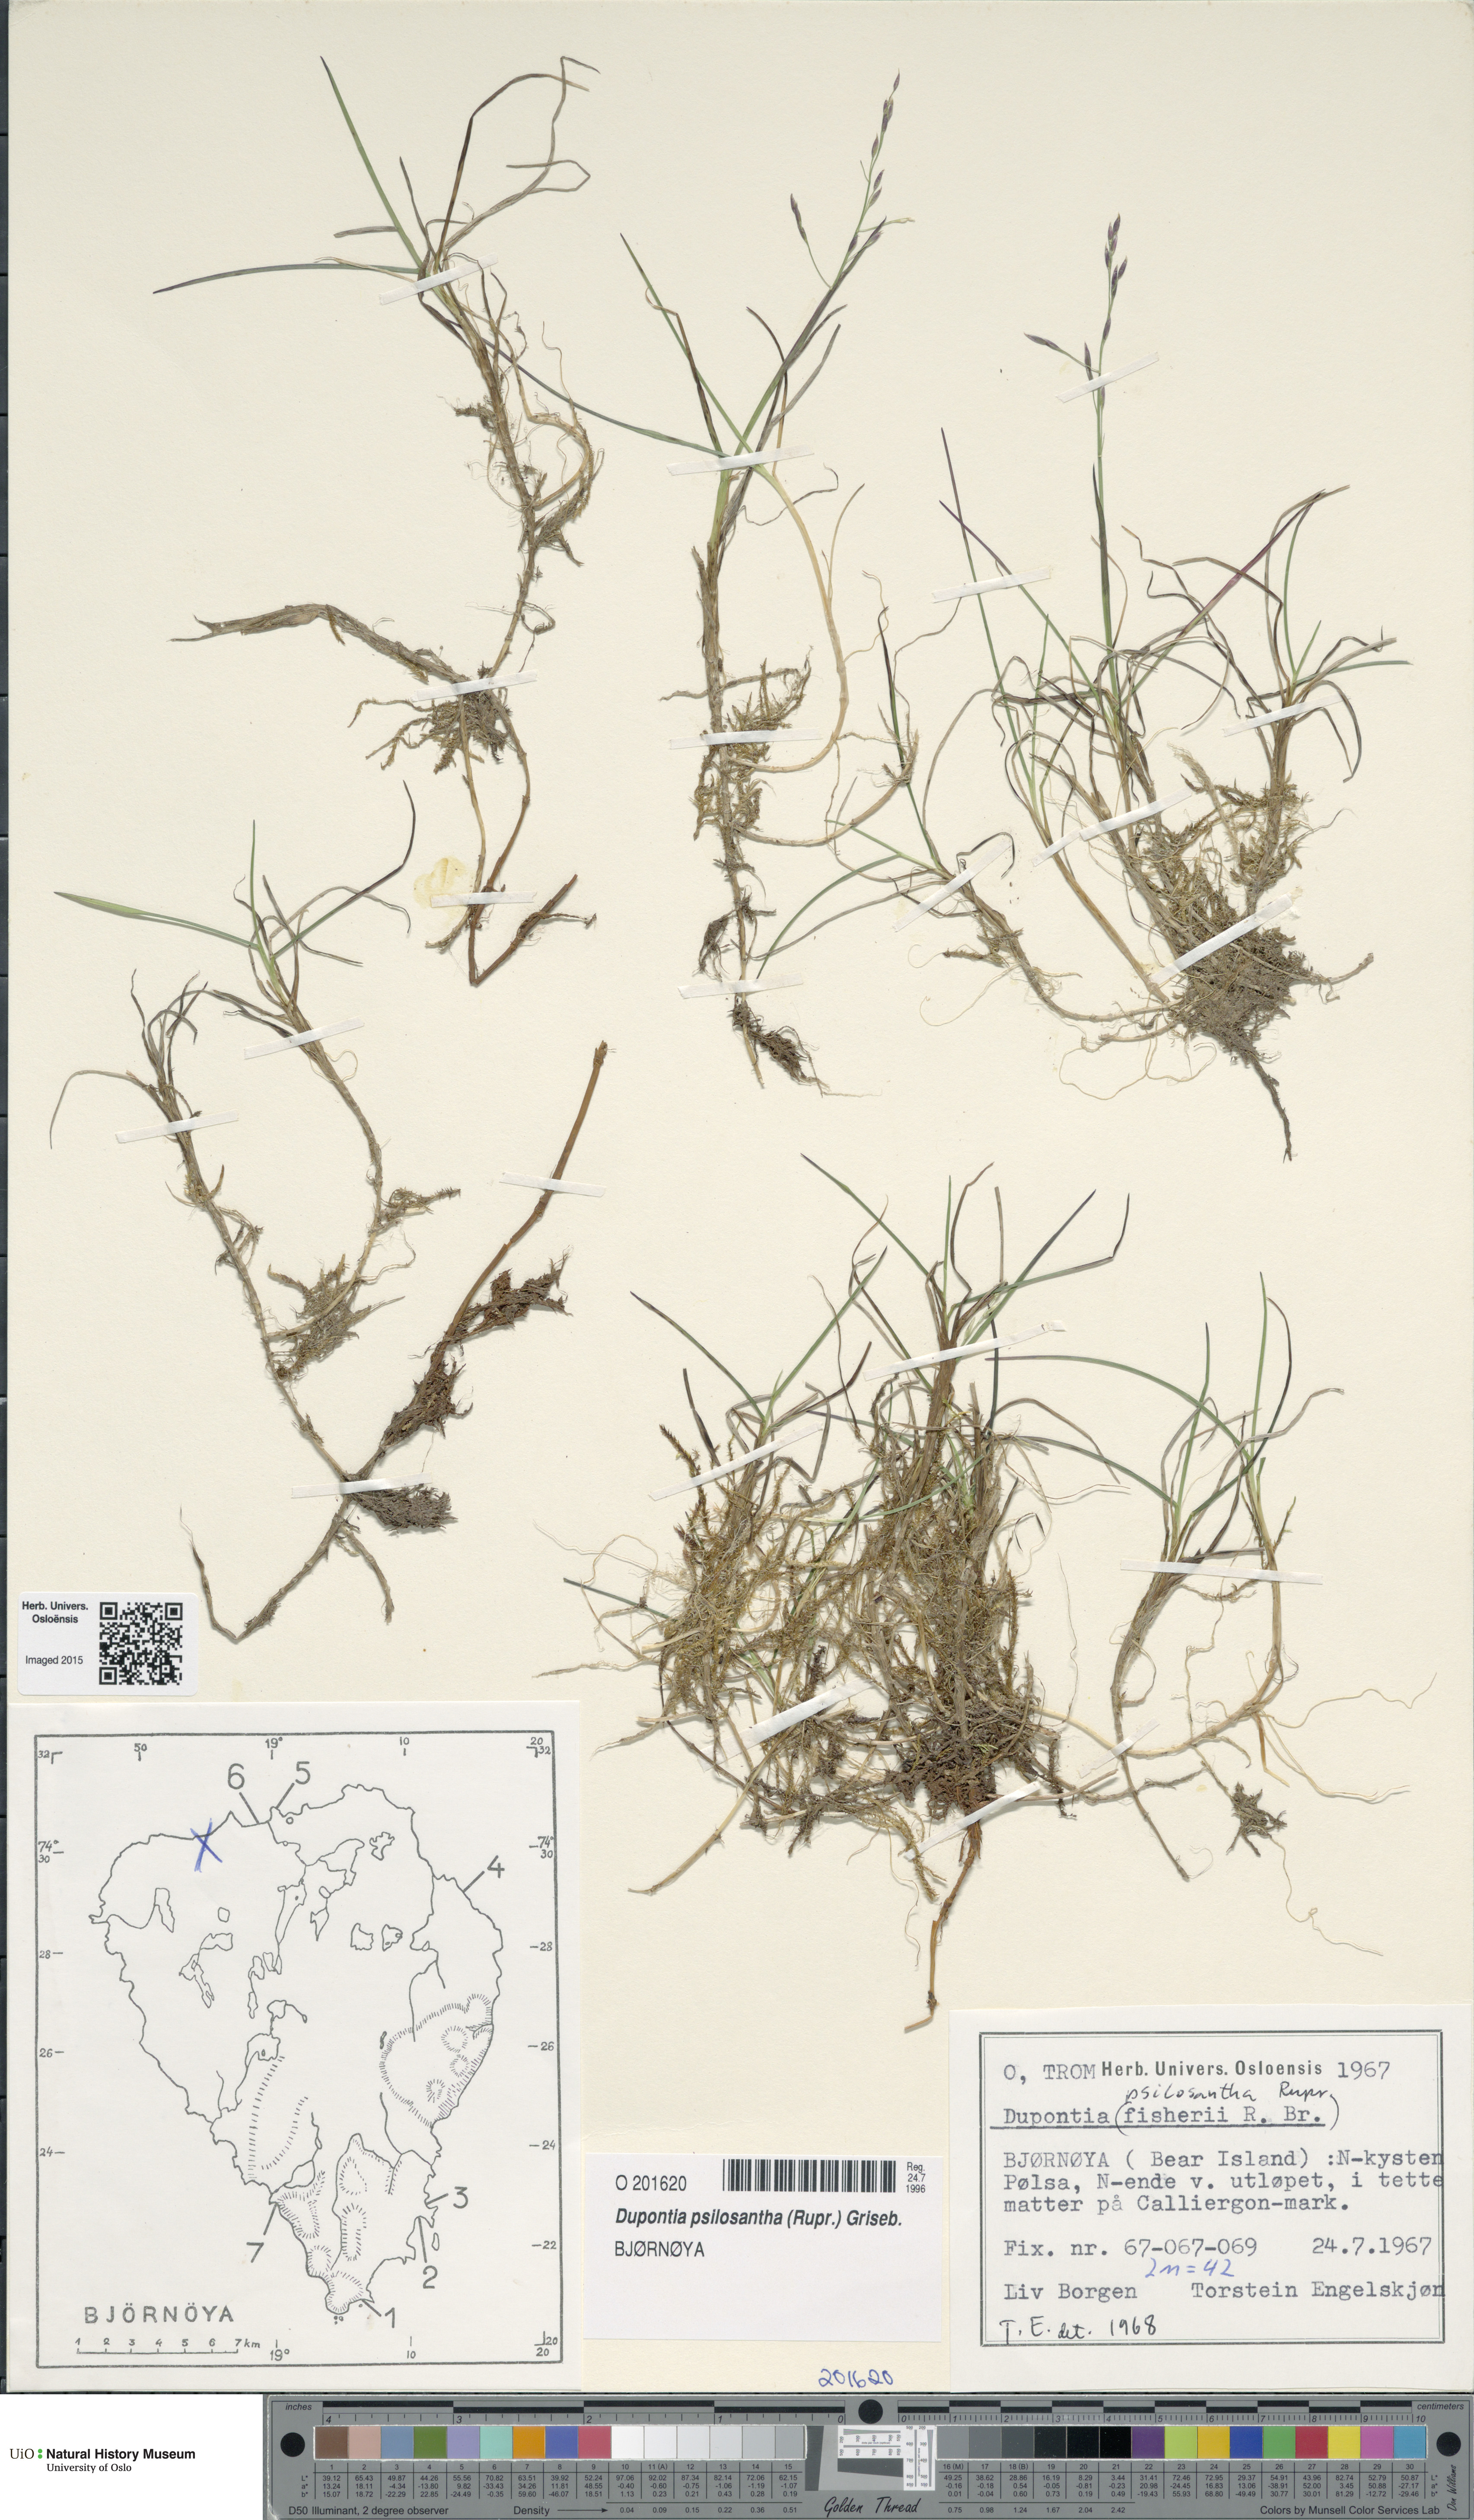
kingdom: Plantae
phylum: Tracheophyta
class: Liliopsida
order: Poales
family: Poaceae
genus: Dupontia
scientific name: Dupontia fisheri
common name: Tundra grass
